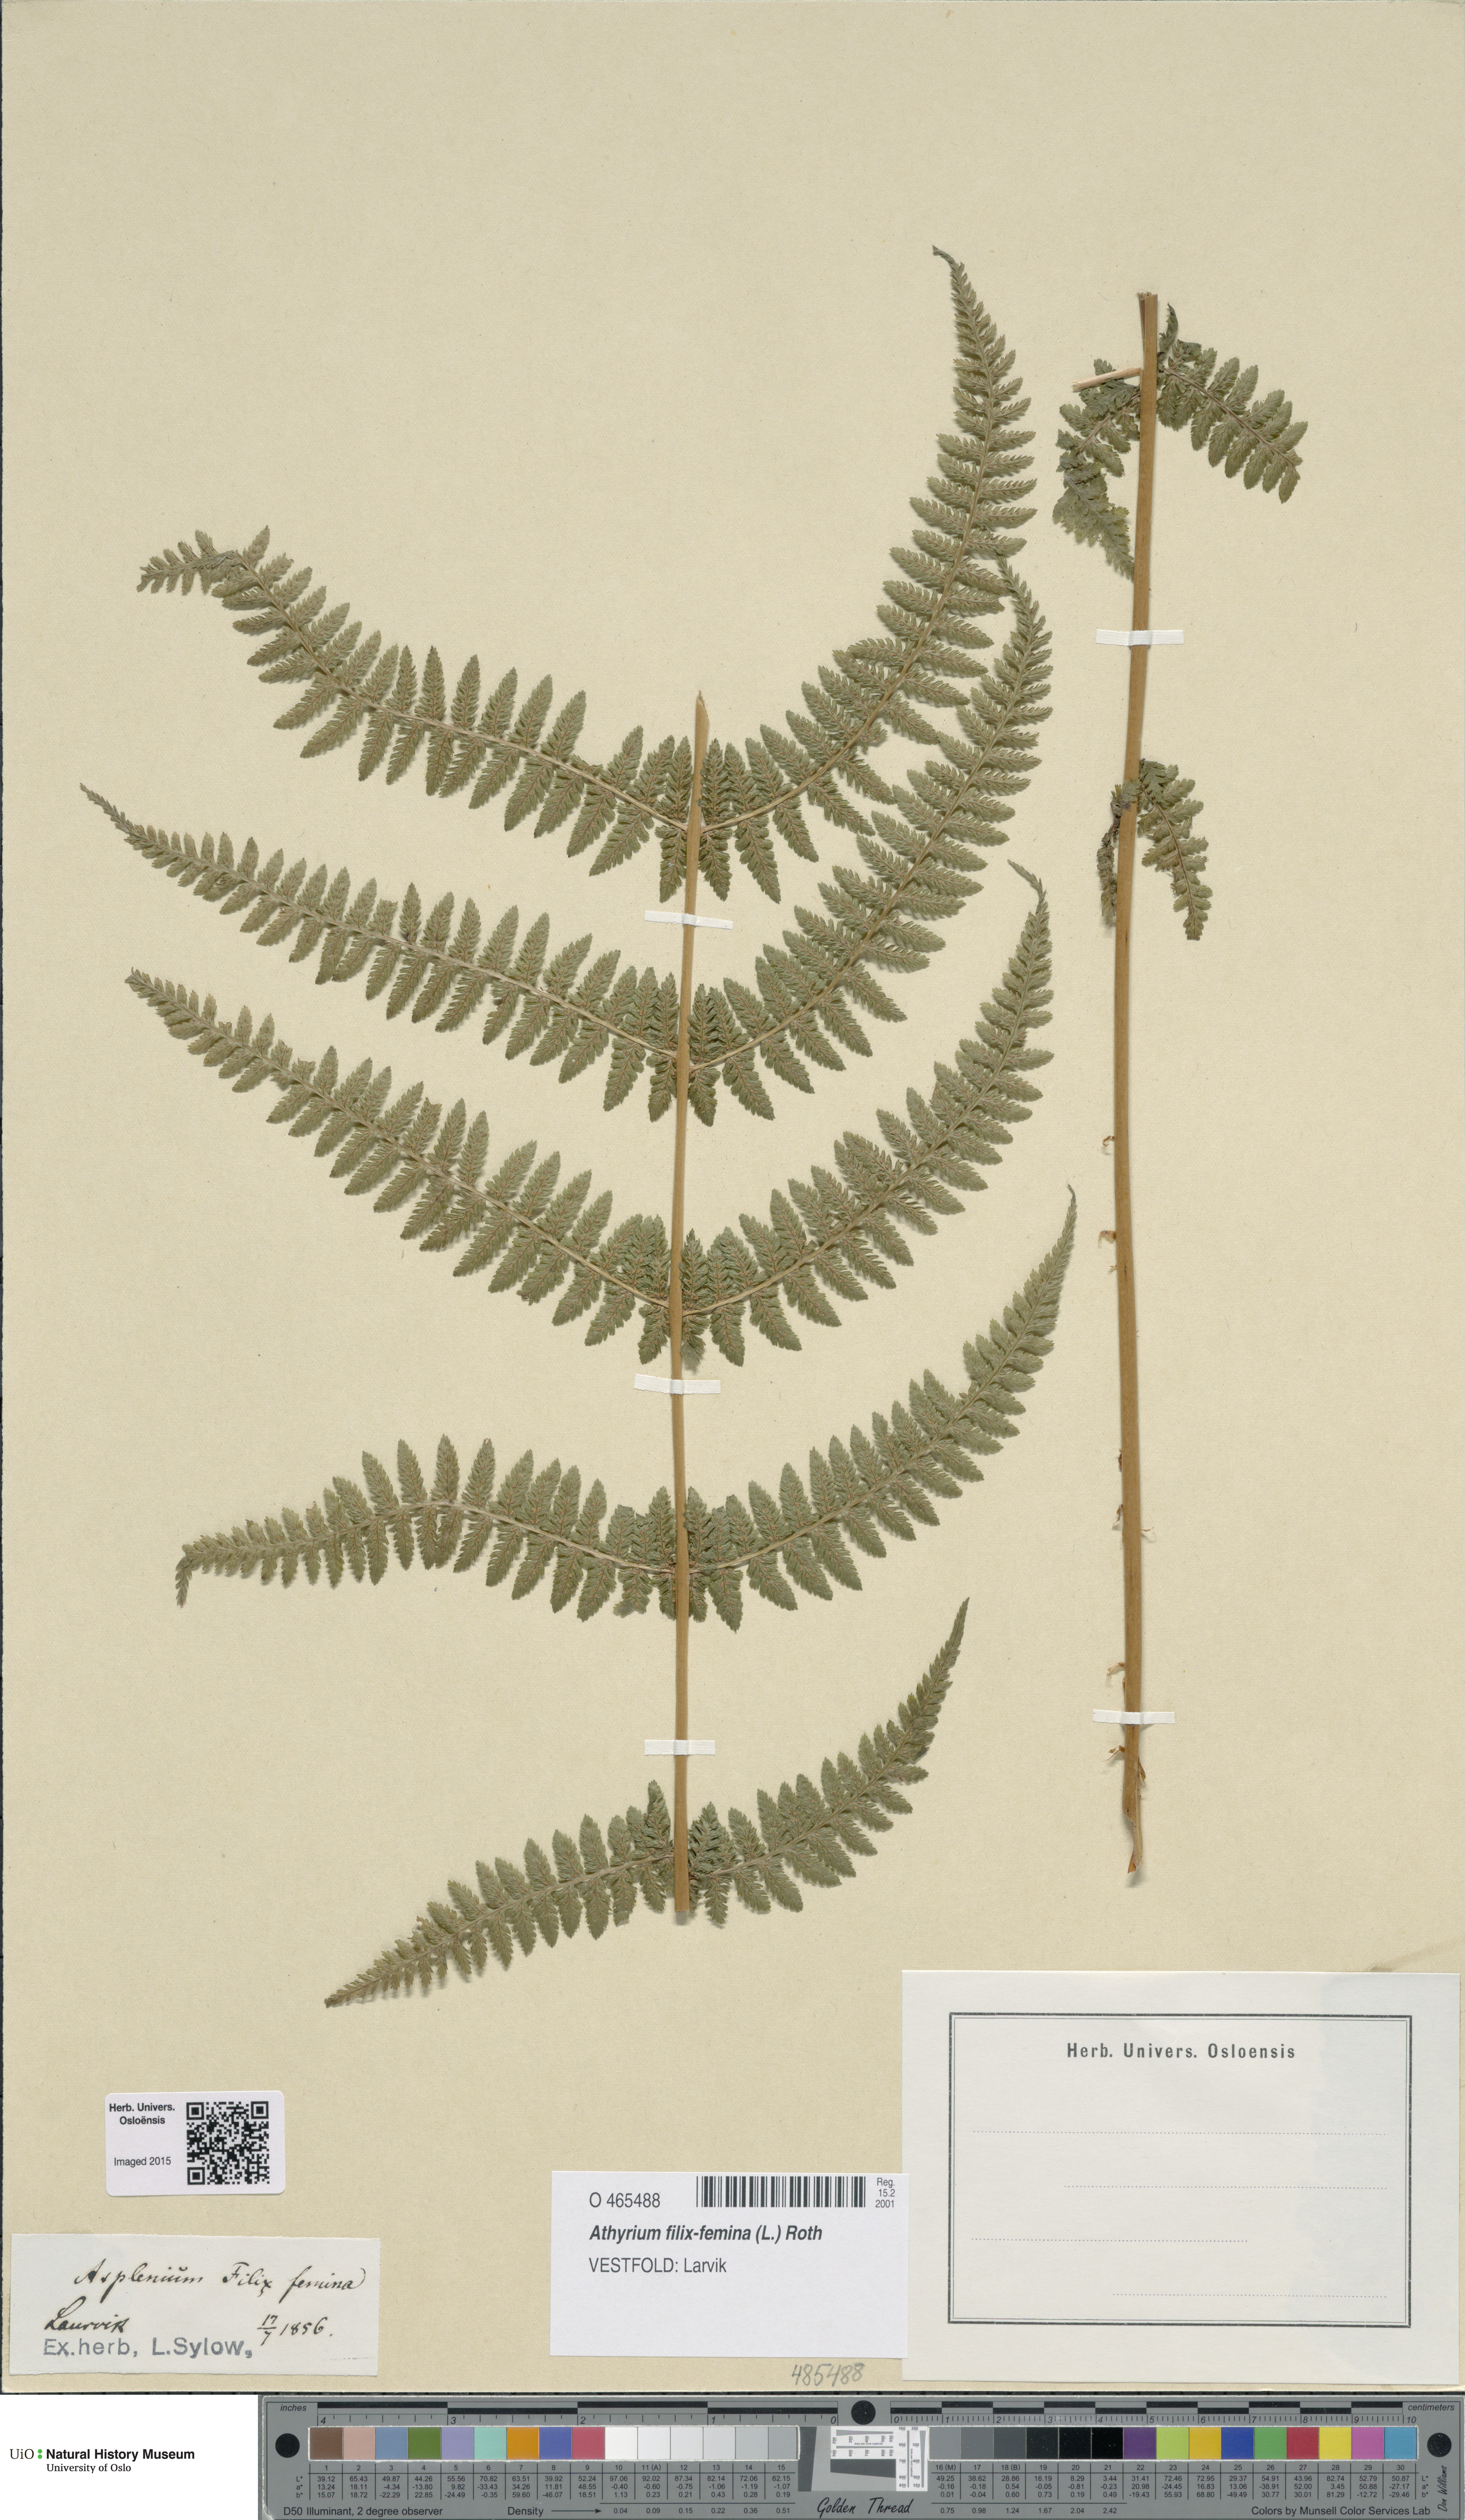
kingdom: Plantae
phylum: Tracheophyta
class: Polypodiopsida
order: Polypodiales
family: Athyriaceae
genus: Athyrium
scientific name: Athyrium filix-femina
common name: Lady fern
